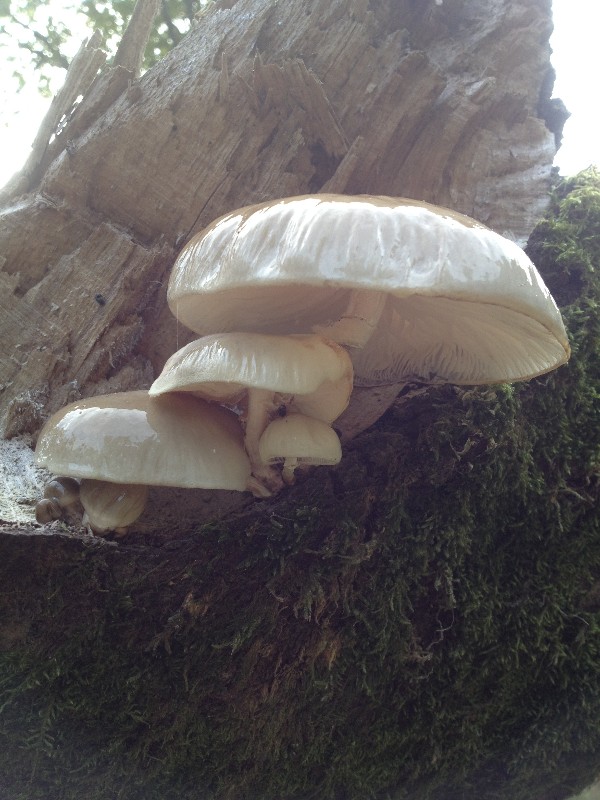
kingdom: Fungi
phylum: Basidiomycota
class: Agaricomycetes
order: Agaricales
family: Physalacriaceae
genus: Mucidula
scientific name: Mucidula mucida
